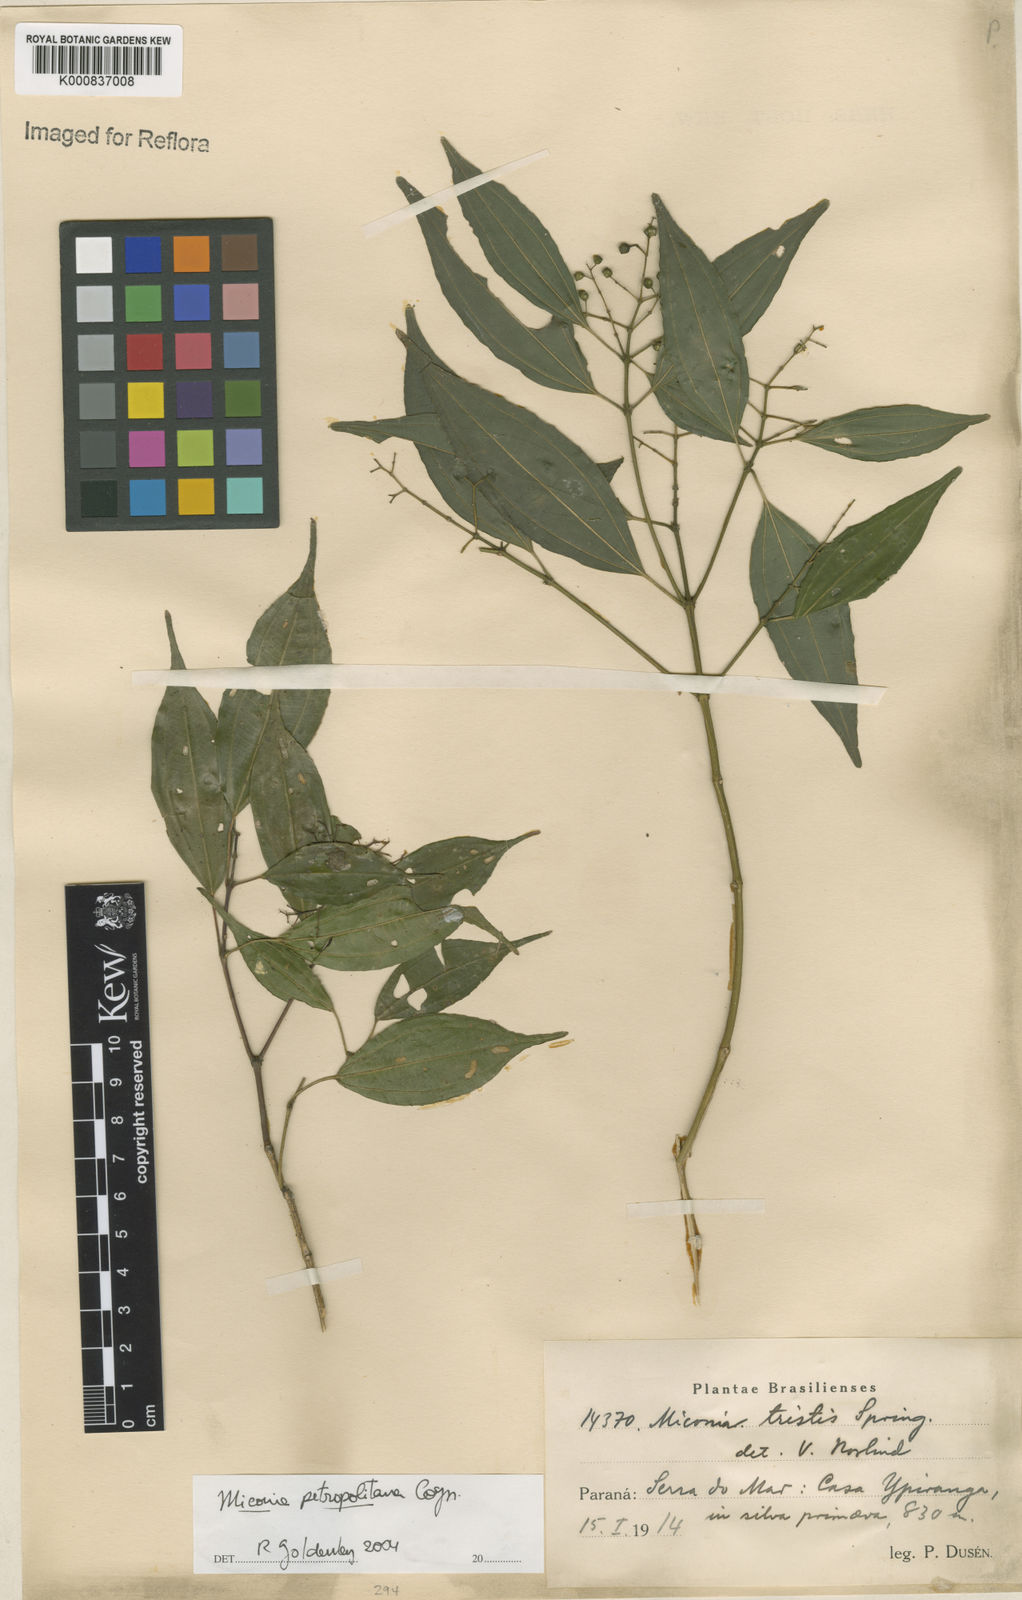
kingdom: Plantae
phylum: Tracheophyta
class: Magnoliopsida
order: Myrtales
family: Melastomataceae
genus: Miconia
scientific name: Miconia petropolitana
